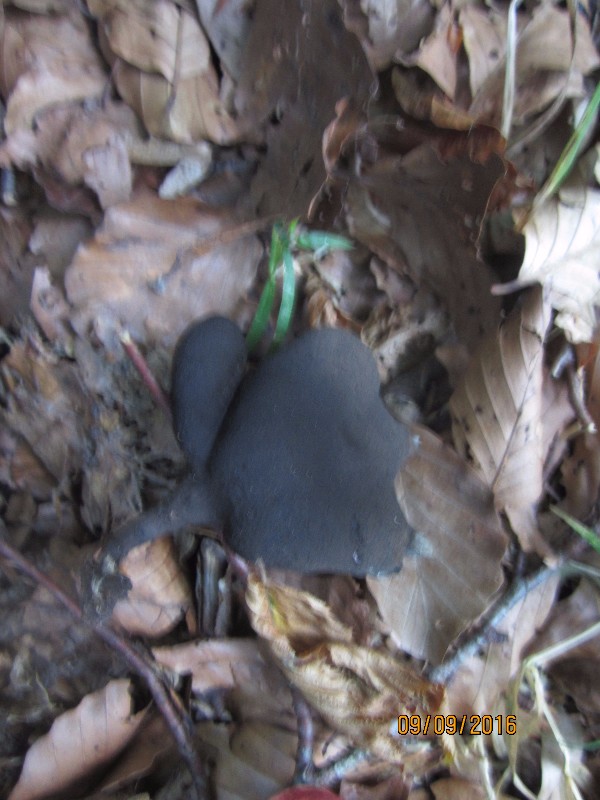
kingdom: Fungi
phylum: Ascomycota
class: Sordariomycetes
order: Xylariales
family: Xylariaceae
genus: Xylaria
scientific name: Xylaria polymorpha
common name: kølle-stødsvamp
